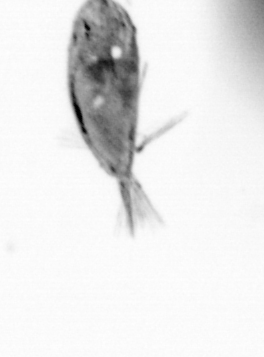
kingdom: Animalia
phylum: Arthropoda
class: Maxillopoda
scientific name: Maxillopoda
